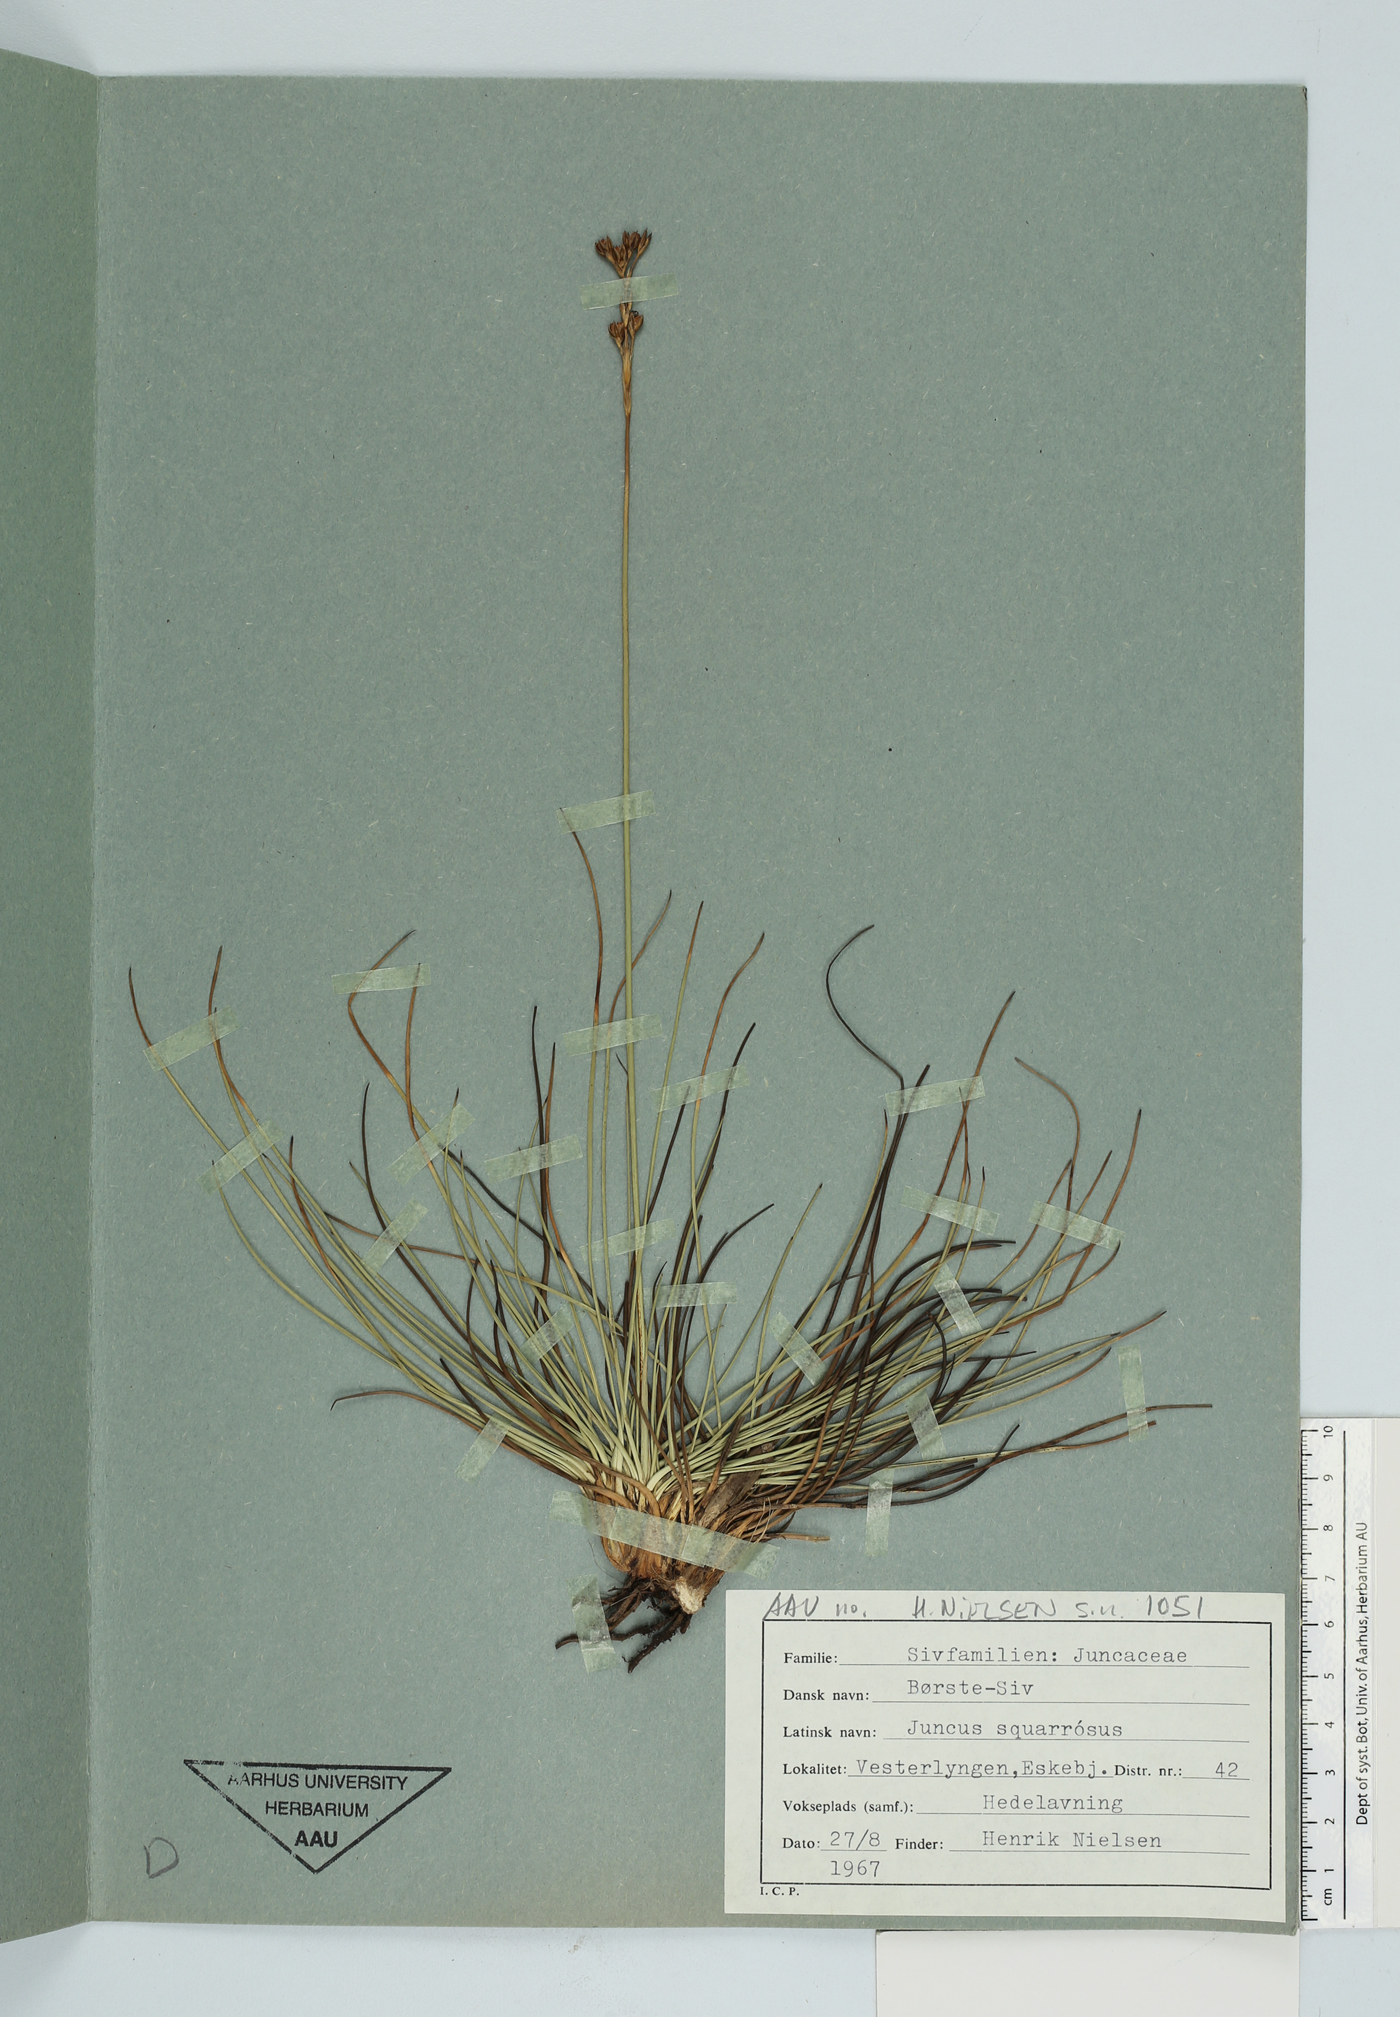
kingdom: Plantae
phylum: Tracheophyta
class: Liliopsida
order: Poales
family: Juncaceae
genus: Juncus
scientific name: Juncus squarrosus
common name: Heath rush
